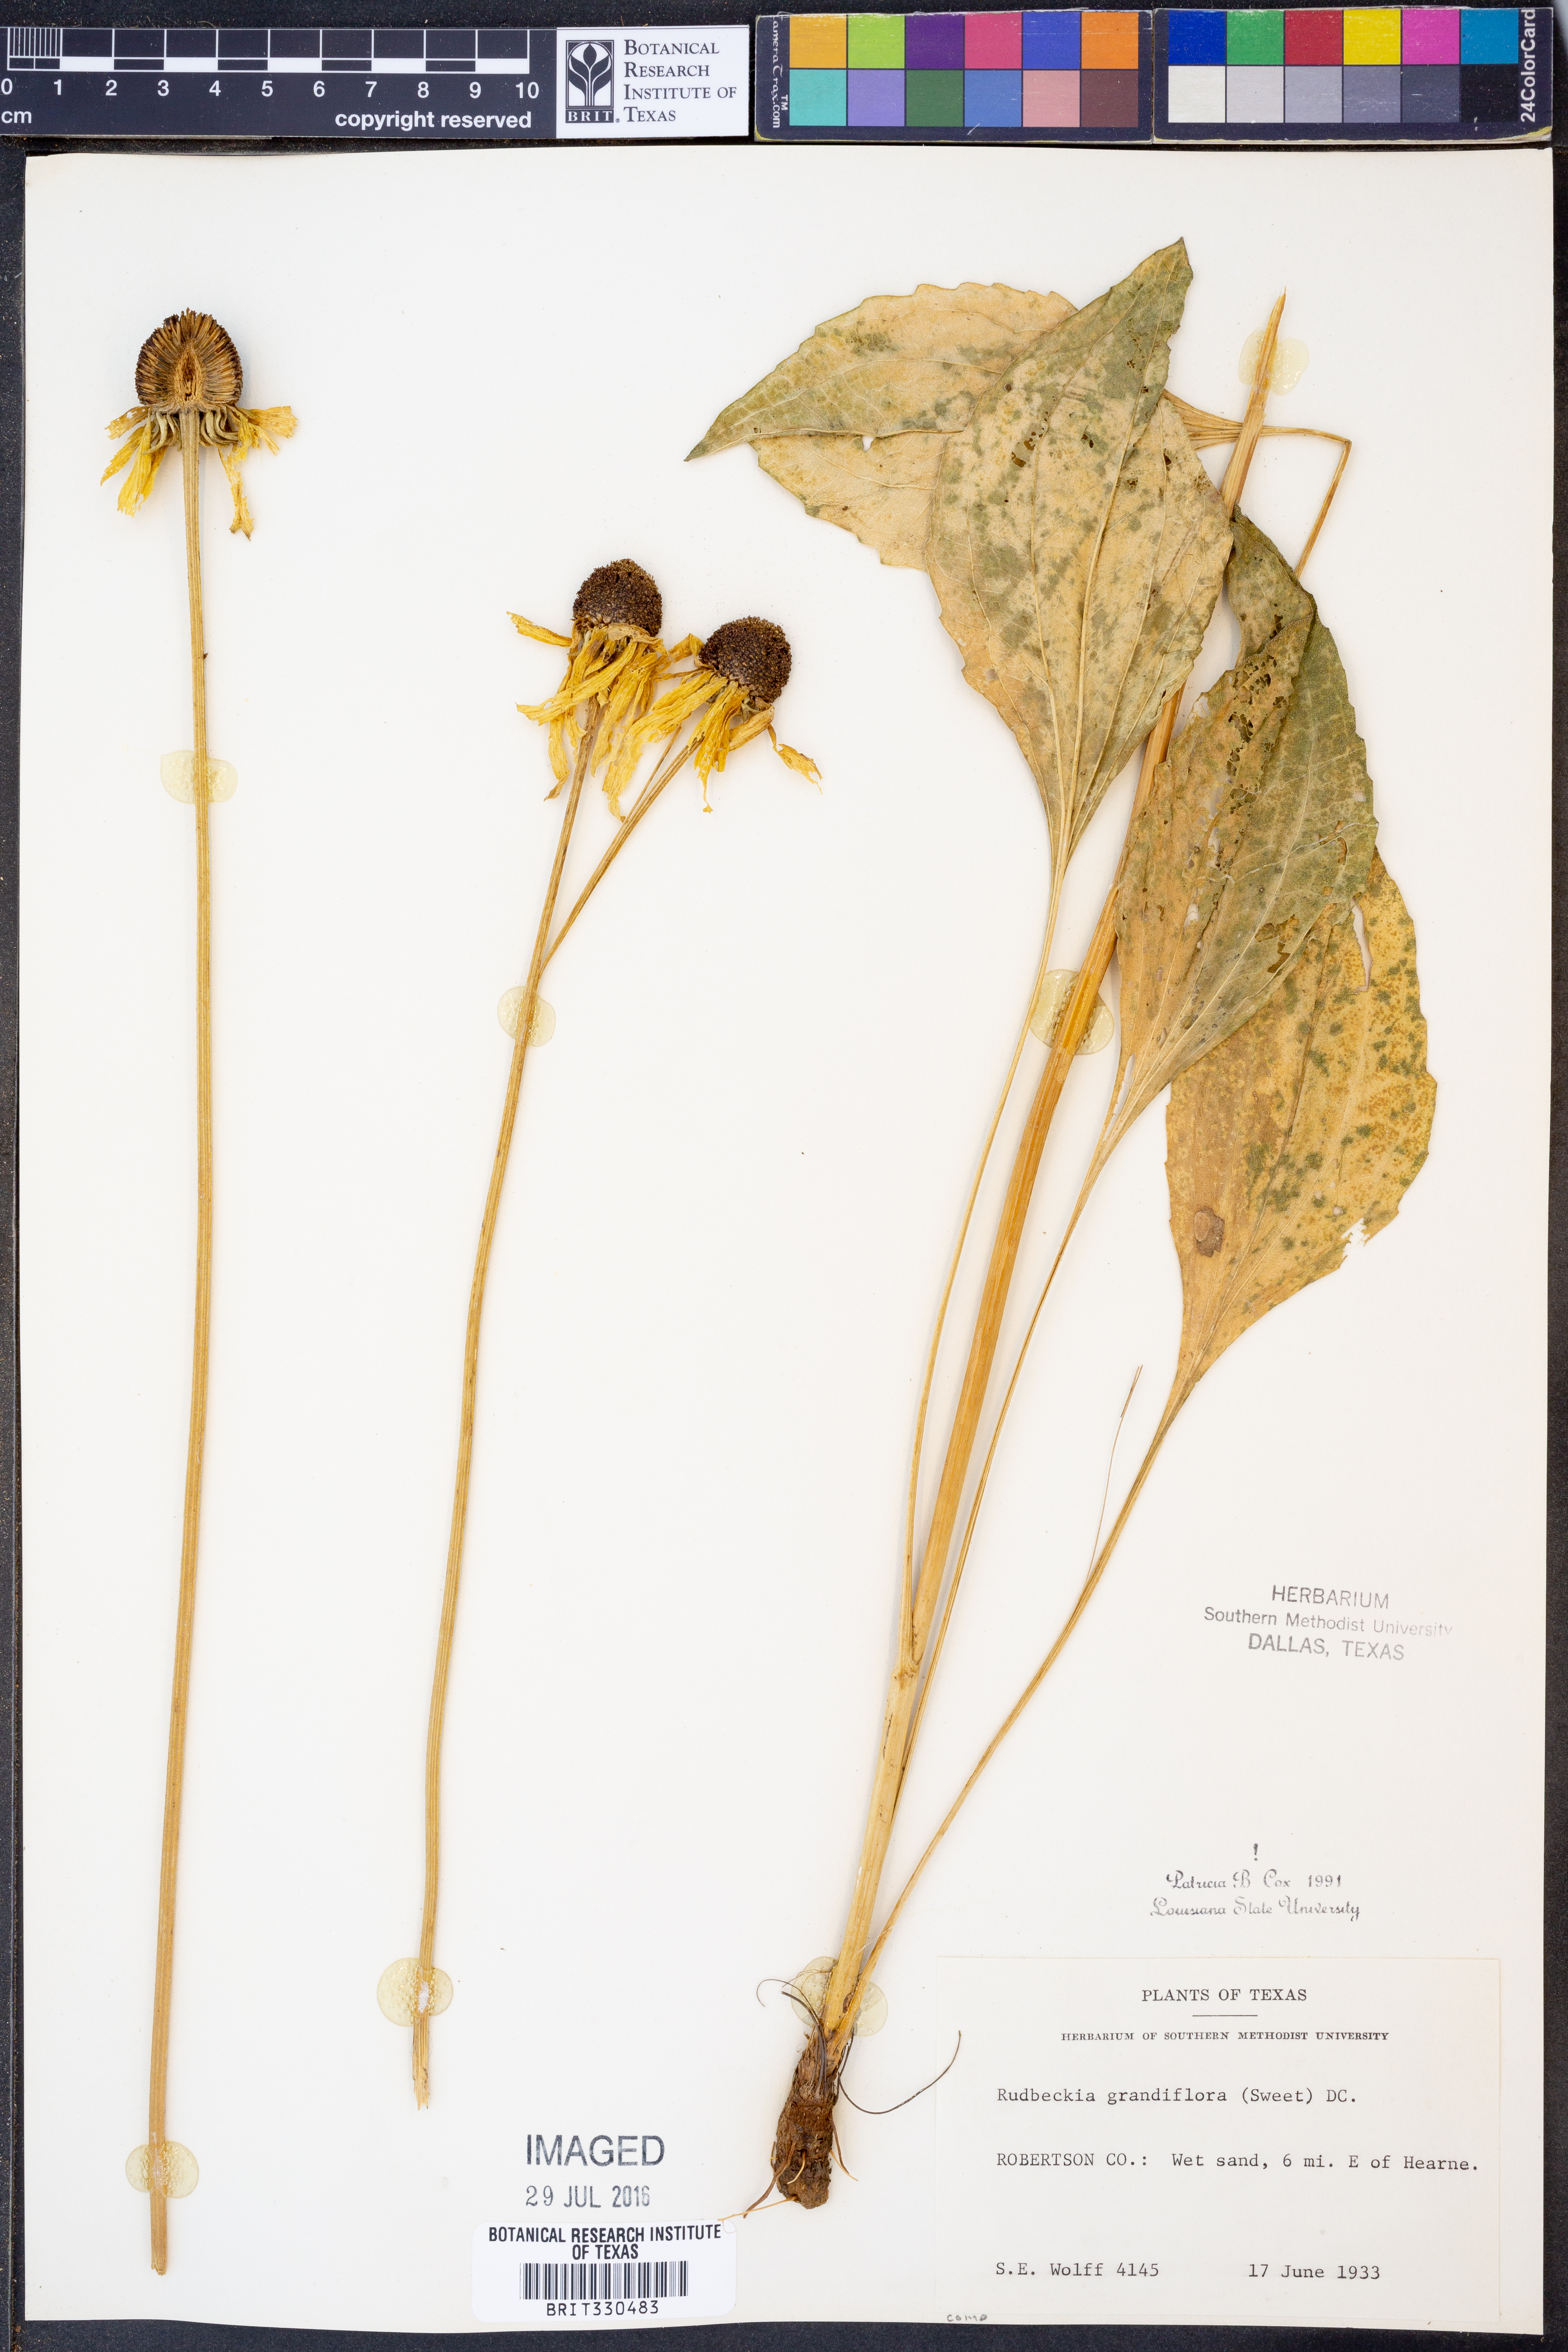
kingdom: Plantae
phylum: Tracheophyta
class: Magnoliopsida
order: Asterales
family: Asteraceae
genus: Rudbeckia
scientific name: Rudbeckia grandiflora
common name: Large-flowered coneflower
